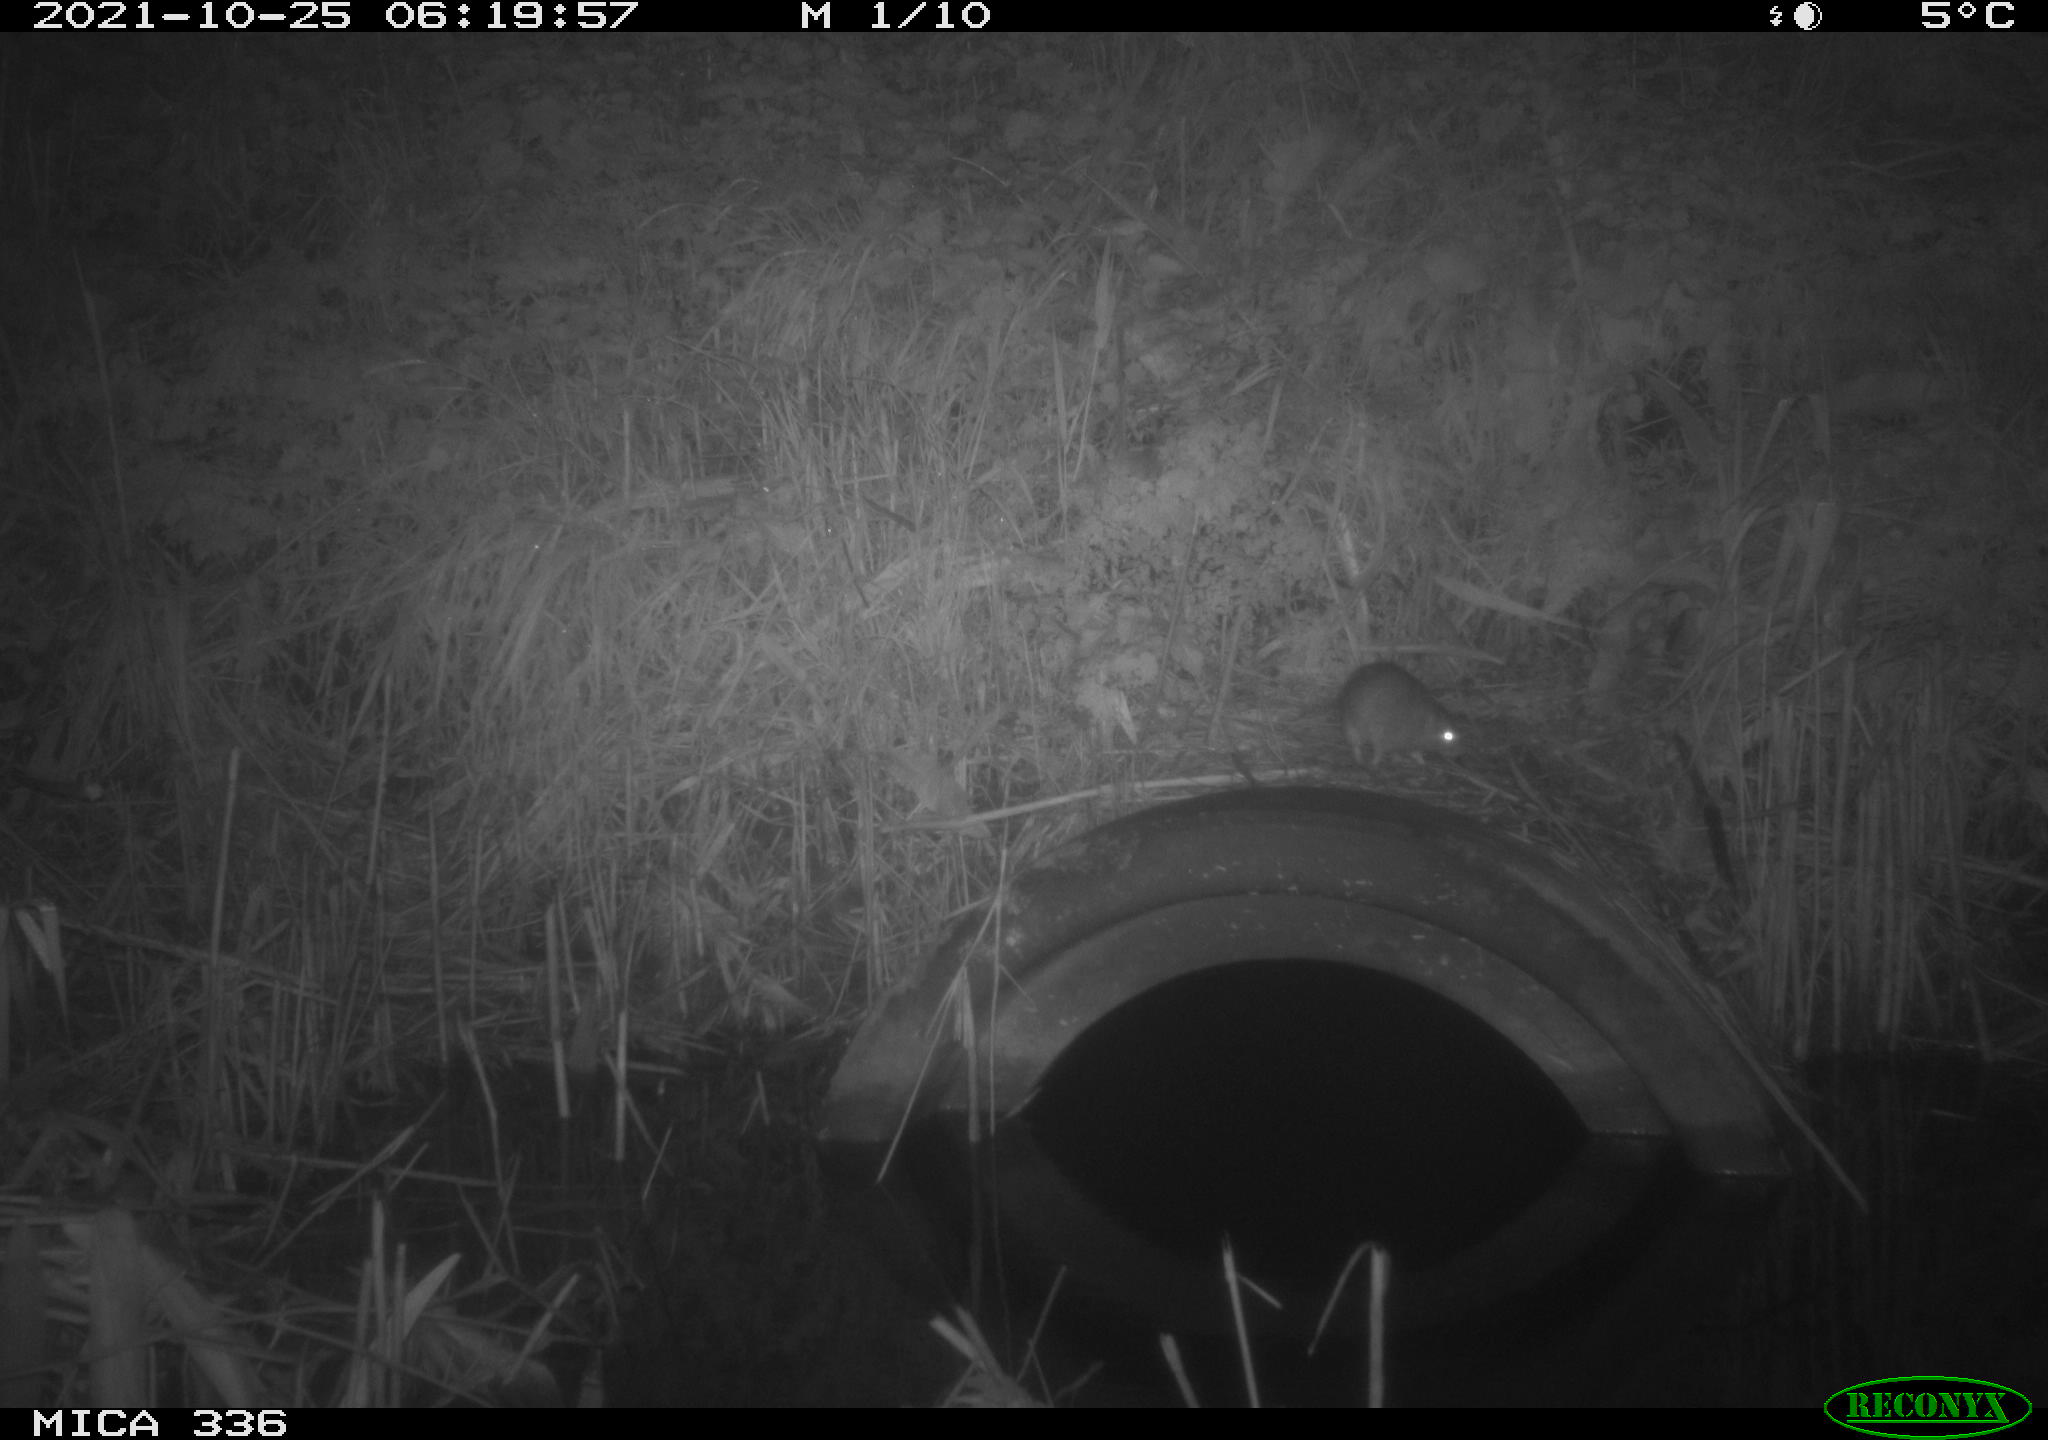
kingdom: Animalia
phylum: Chordata
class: Mammalia
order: Rodentia
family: Muridae
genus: Rattus
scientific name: Rattus norvegicus
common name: Brown rat
